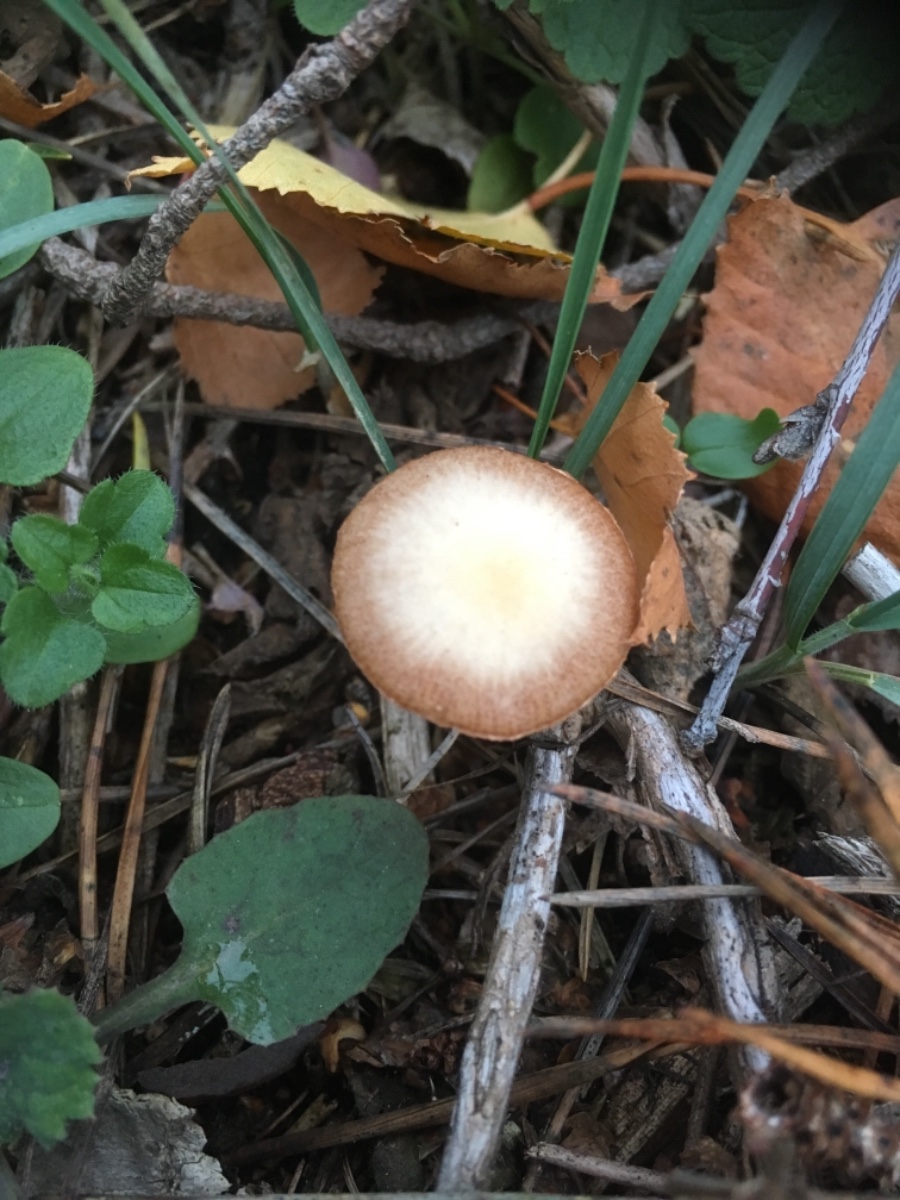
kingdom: Fungi
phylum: Basidiomycota
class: Agaricomycetes
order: Agaricales
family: Tubariaceae
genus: Tubaria
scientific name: Tubaria furfuracea
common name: kliddet fnughat
